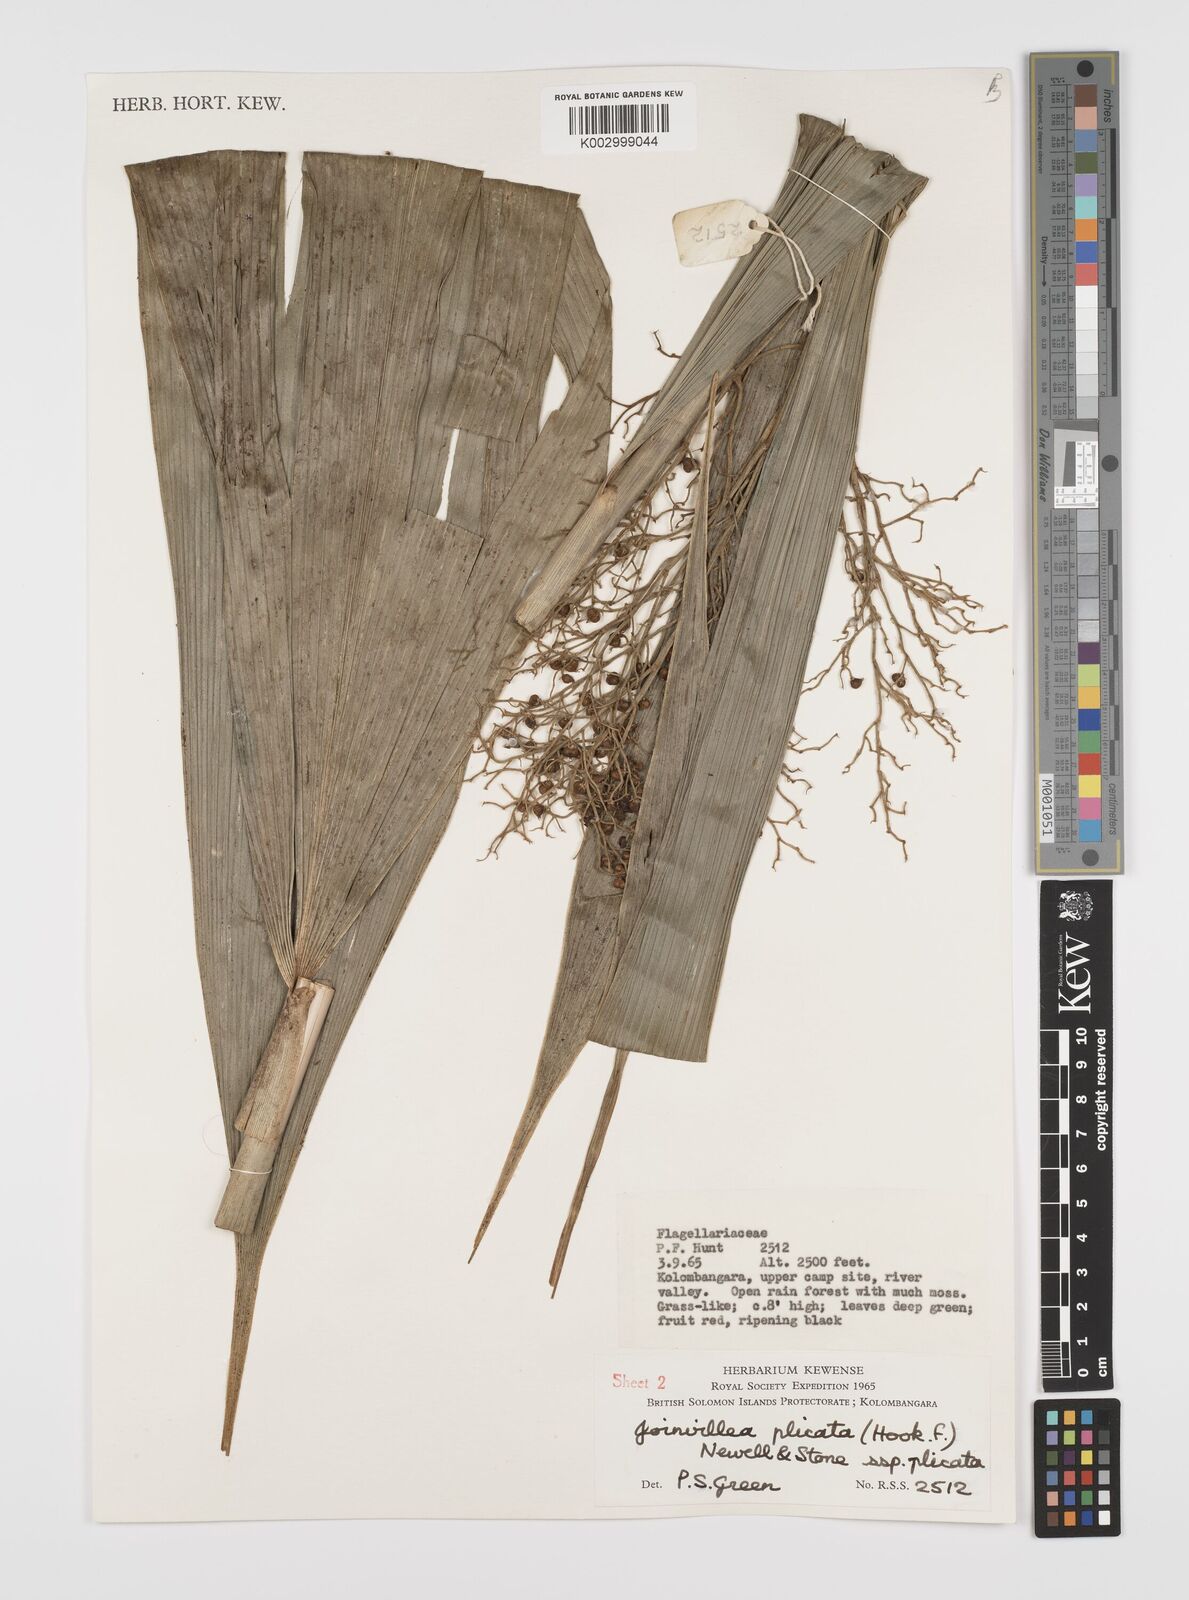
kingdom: Plantae
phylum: Tracheophyta
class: Liliopsida
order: Poales
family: Joinvilleaceae
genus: Joinvillea
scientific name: Joinvillea plicata
